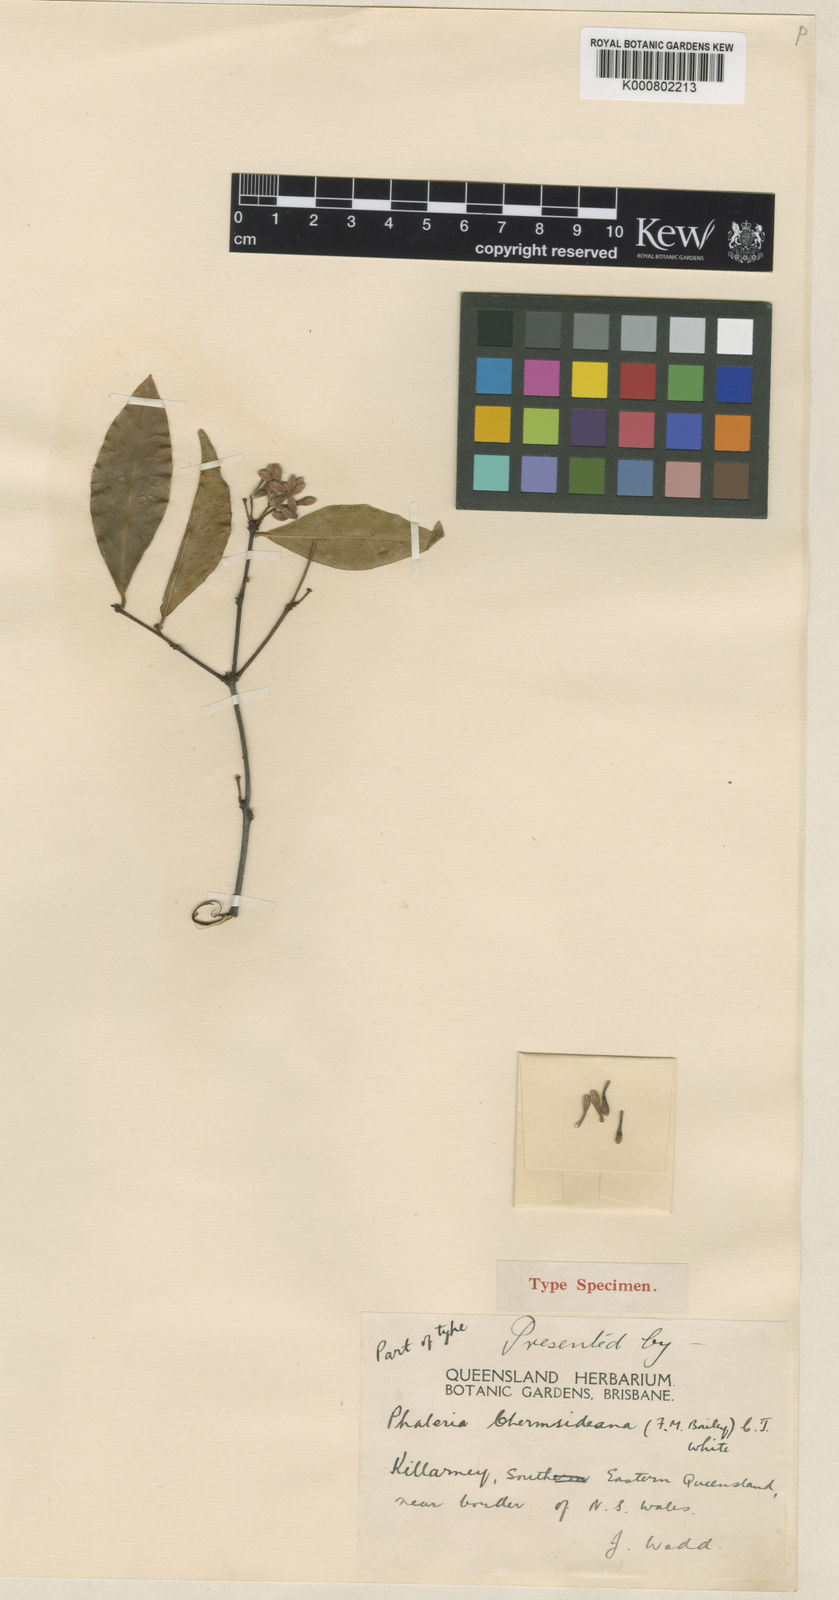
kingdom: Plantae
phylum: Tracheophyta
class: Magnoliopsida
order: Malvales
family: Thymelaeaceae
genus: Phaleria
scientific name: Phaleria
